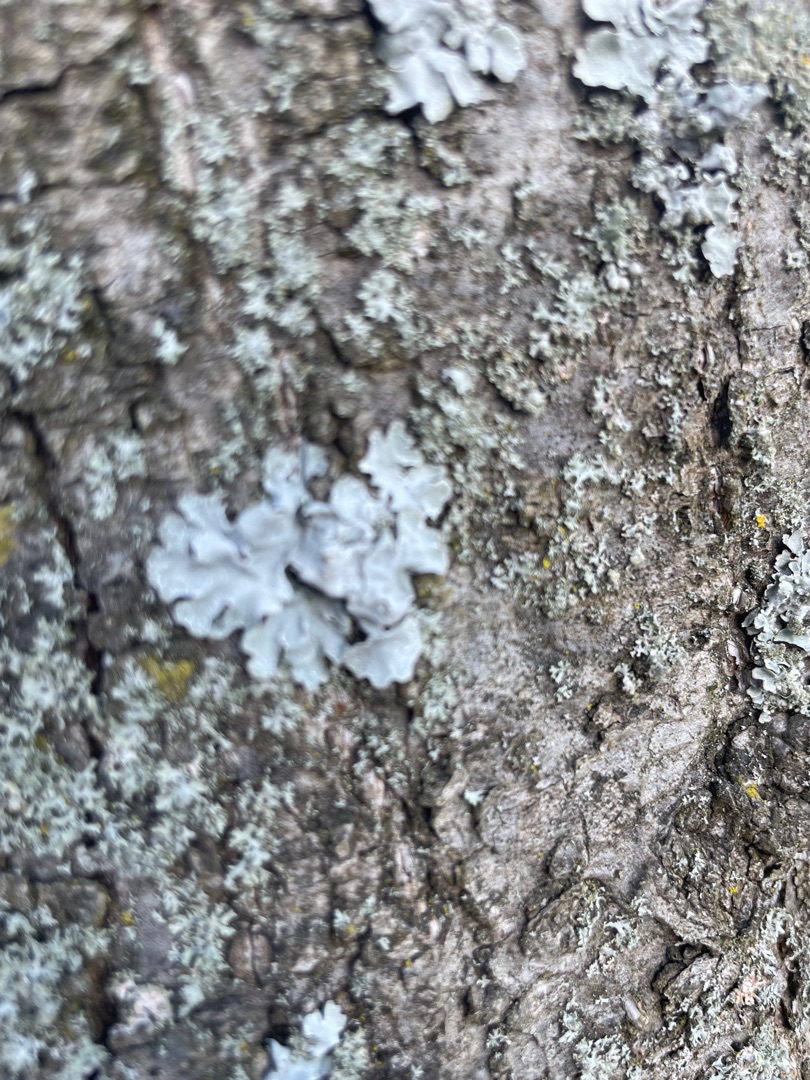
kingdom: Fungi
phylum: Ascomycota
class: Lecanoromycetes
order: Lecanorales
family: Parmeliaceae
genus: Parmelia
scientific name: Parmelia sulcata
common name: Rynket skållav
